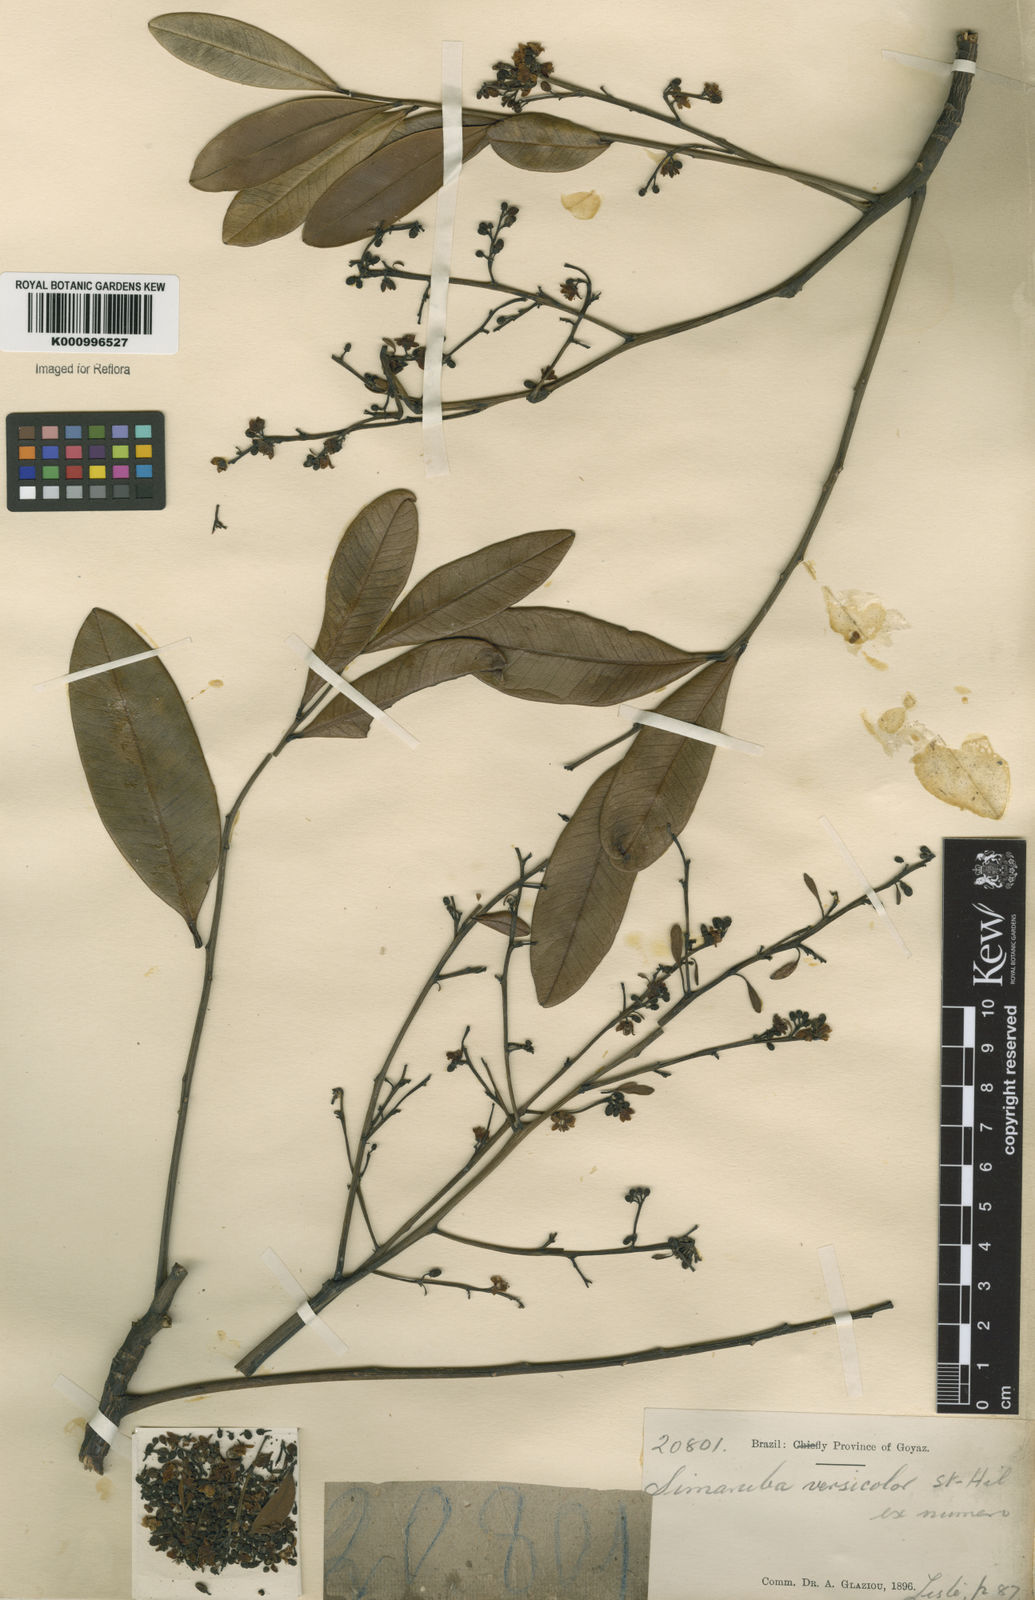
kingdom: Plantae
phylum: Tracheophyta
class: Magnoliopsida
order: Sapindales
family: Simaroubaceae
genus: Simarouba
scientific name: Simarouba versicolor
